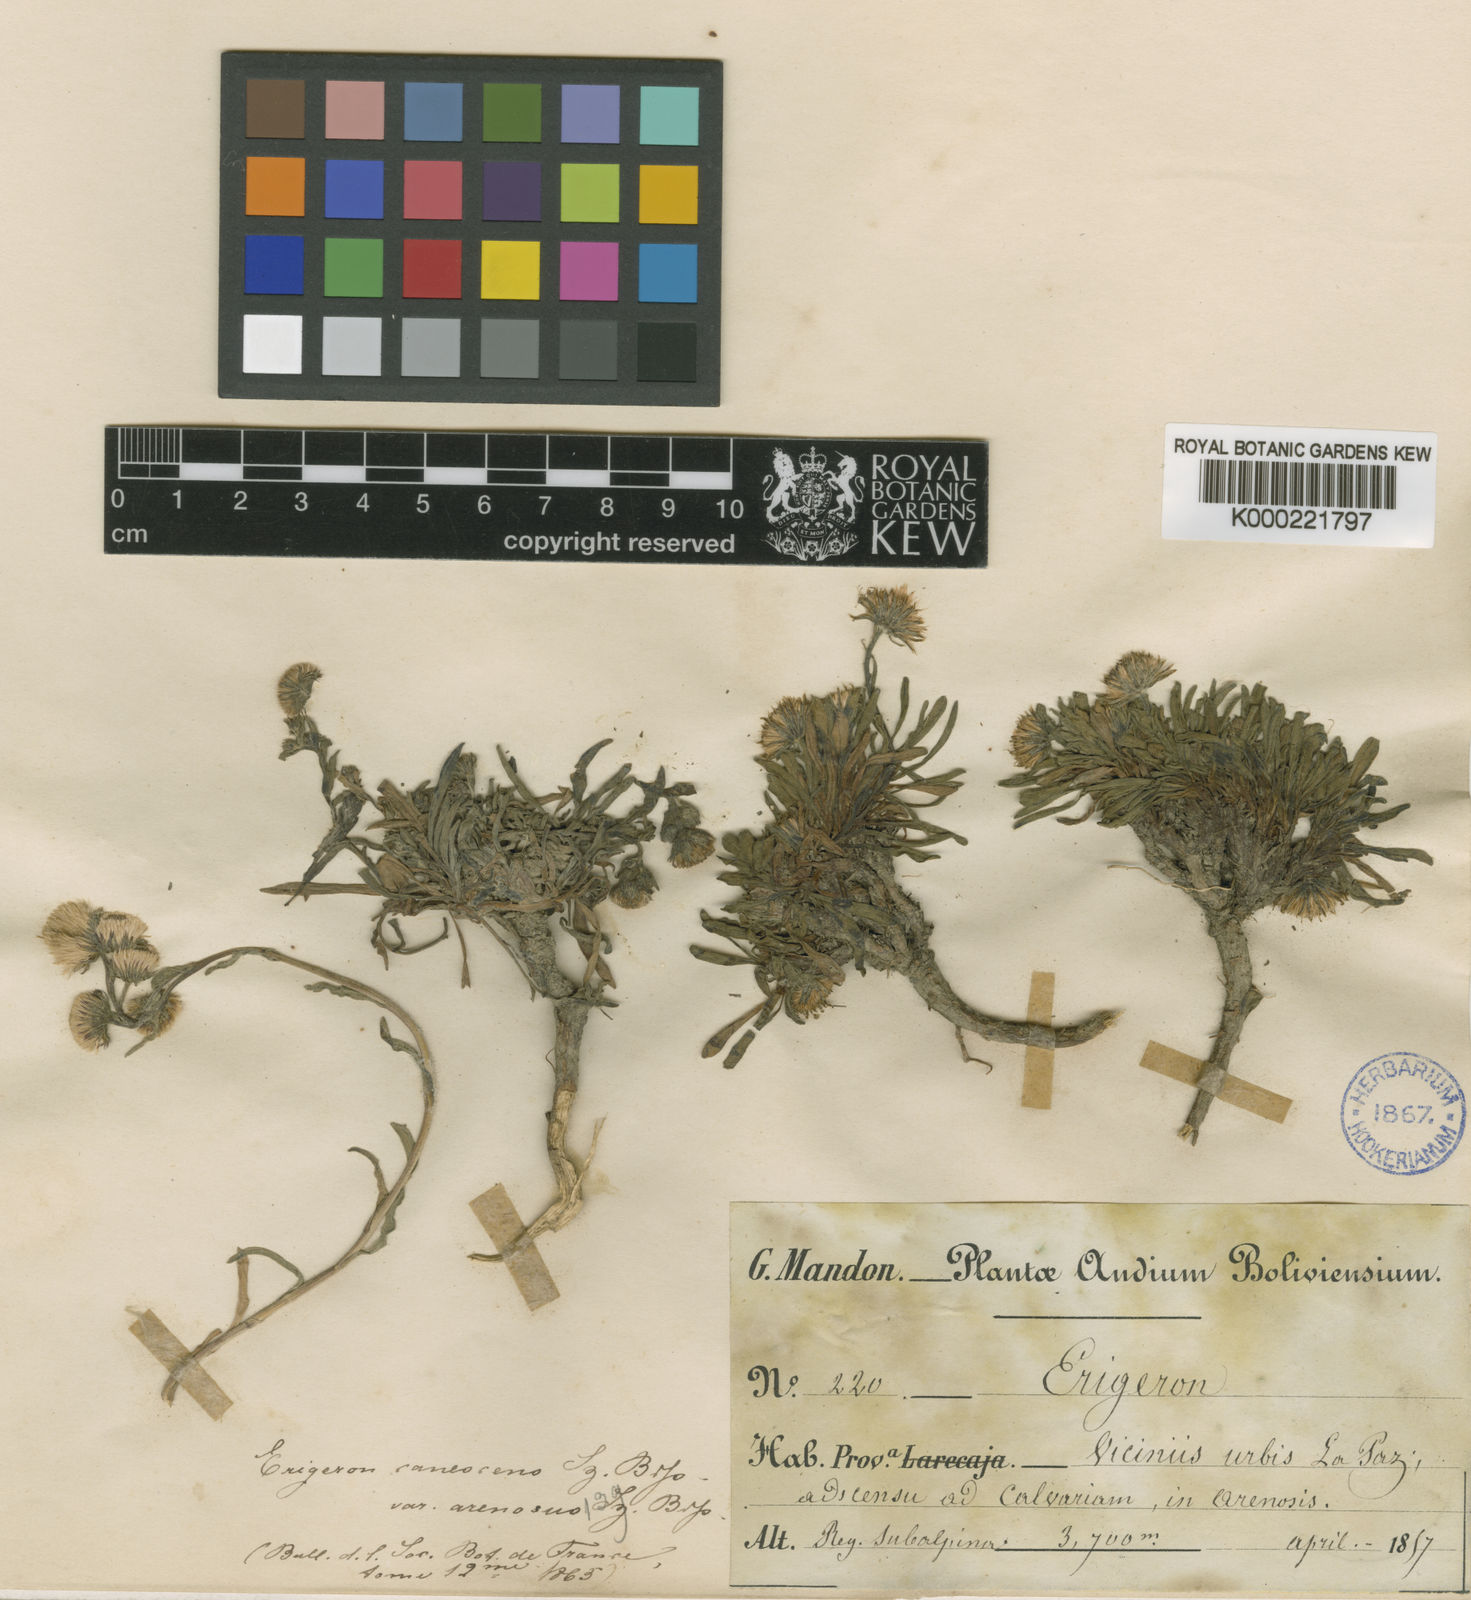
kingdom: Plantae
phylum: Tracheophyta
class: Magnoliopsida
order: Asterales
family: Asteraceae
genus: Erigeron
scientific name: Erigeron deserticolus
